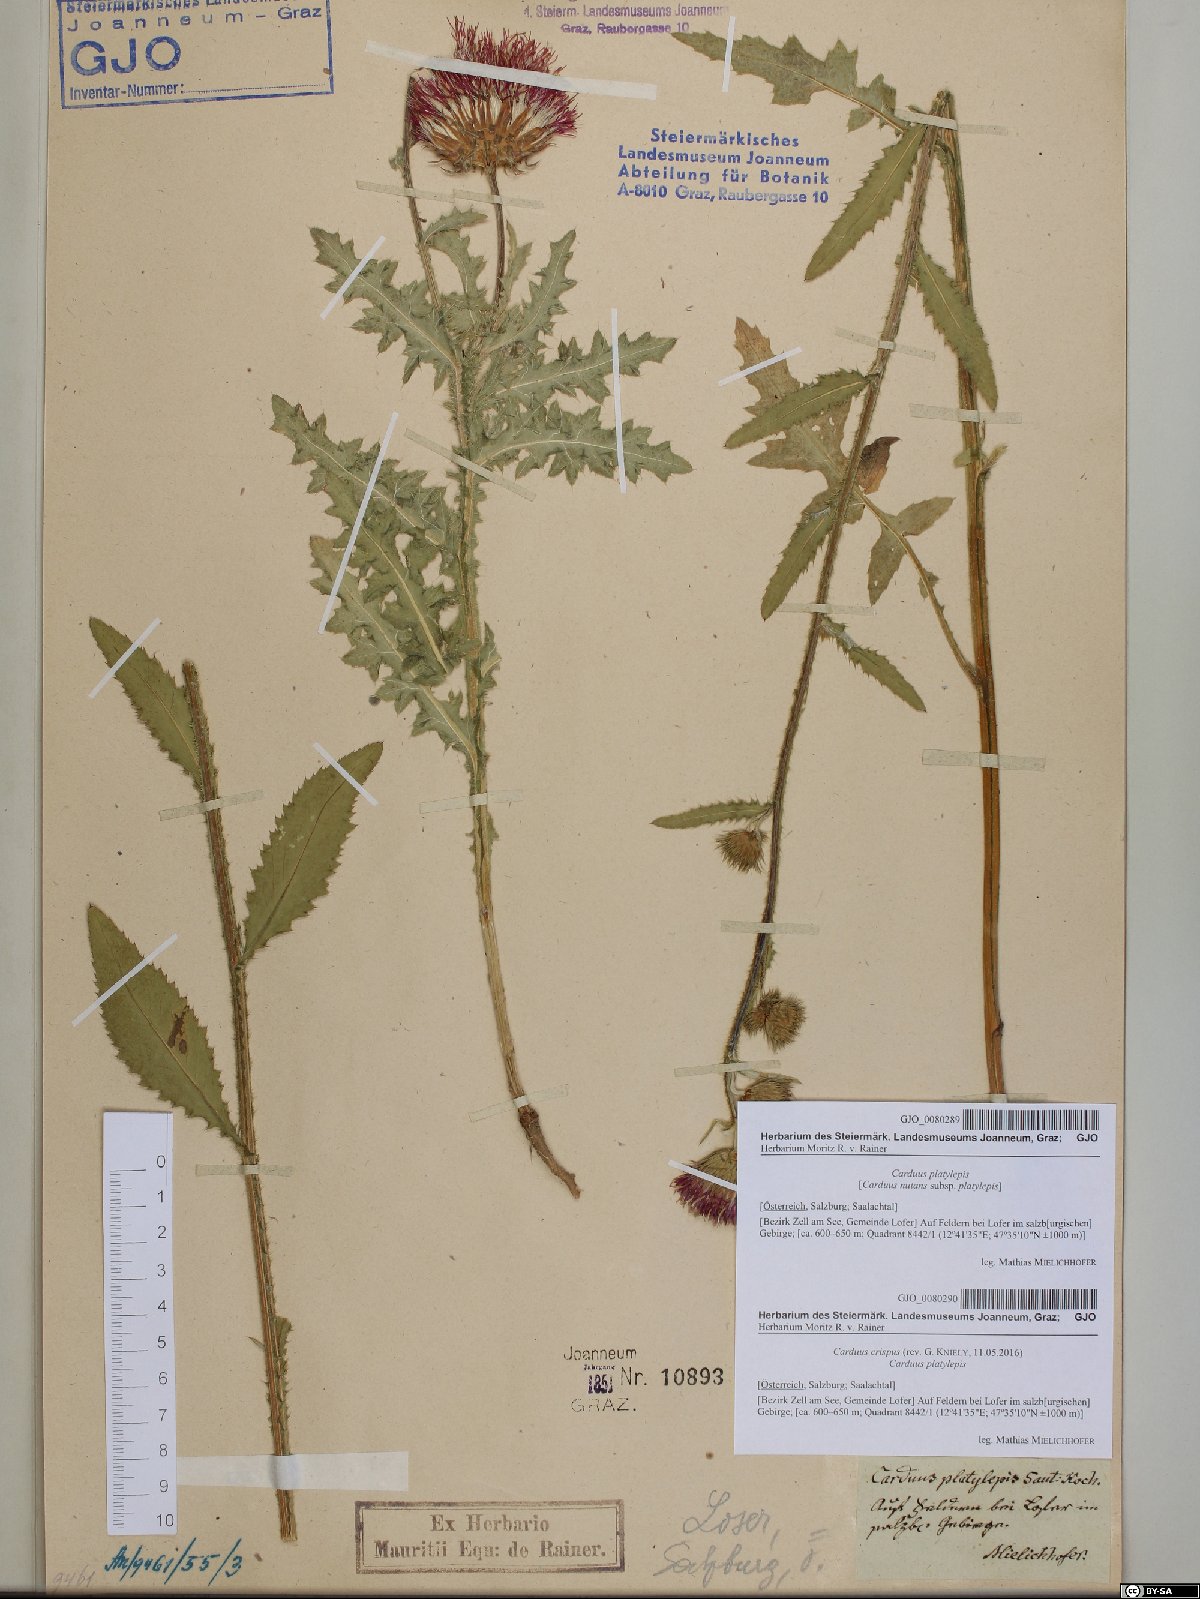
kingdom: Plantae
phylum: Tracheophyta
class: Magnoliopsida
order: Asterales
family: Asteraceae
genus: Carduus
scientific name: Carduus crispus
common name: Welted thistle
